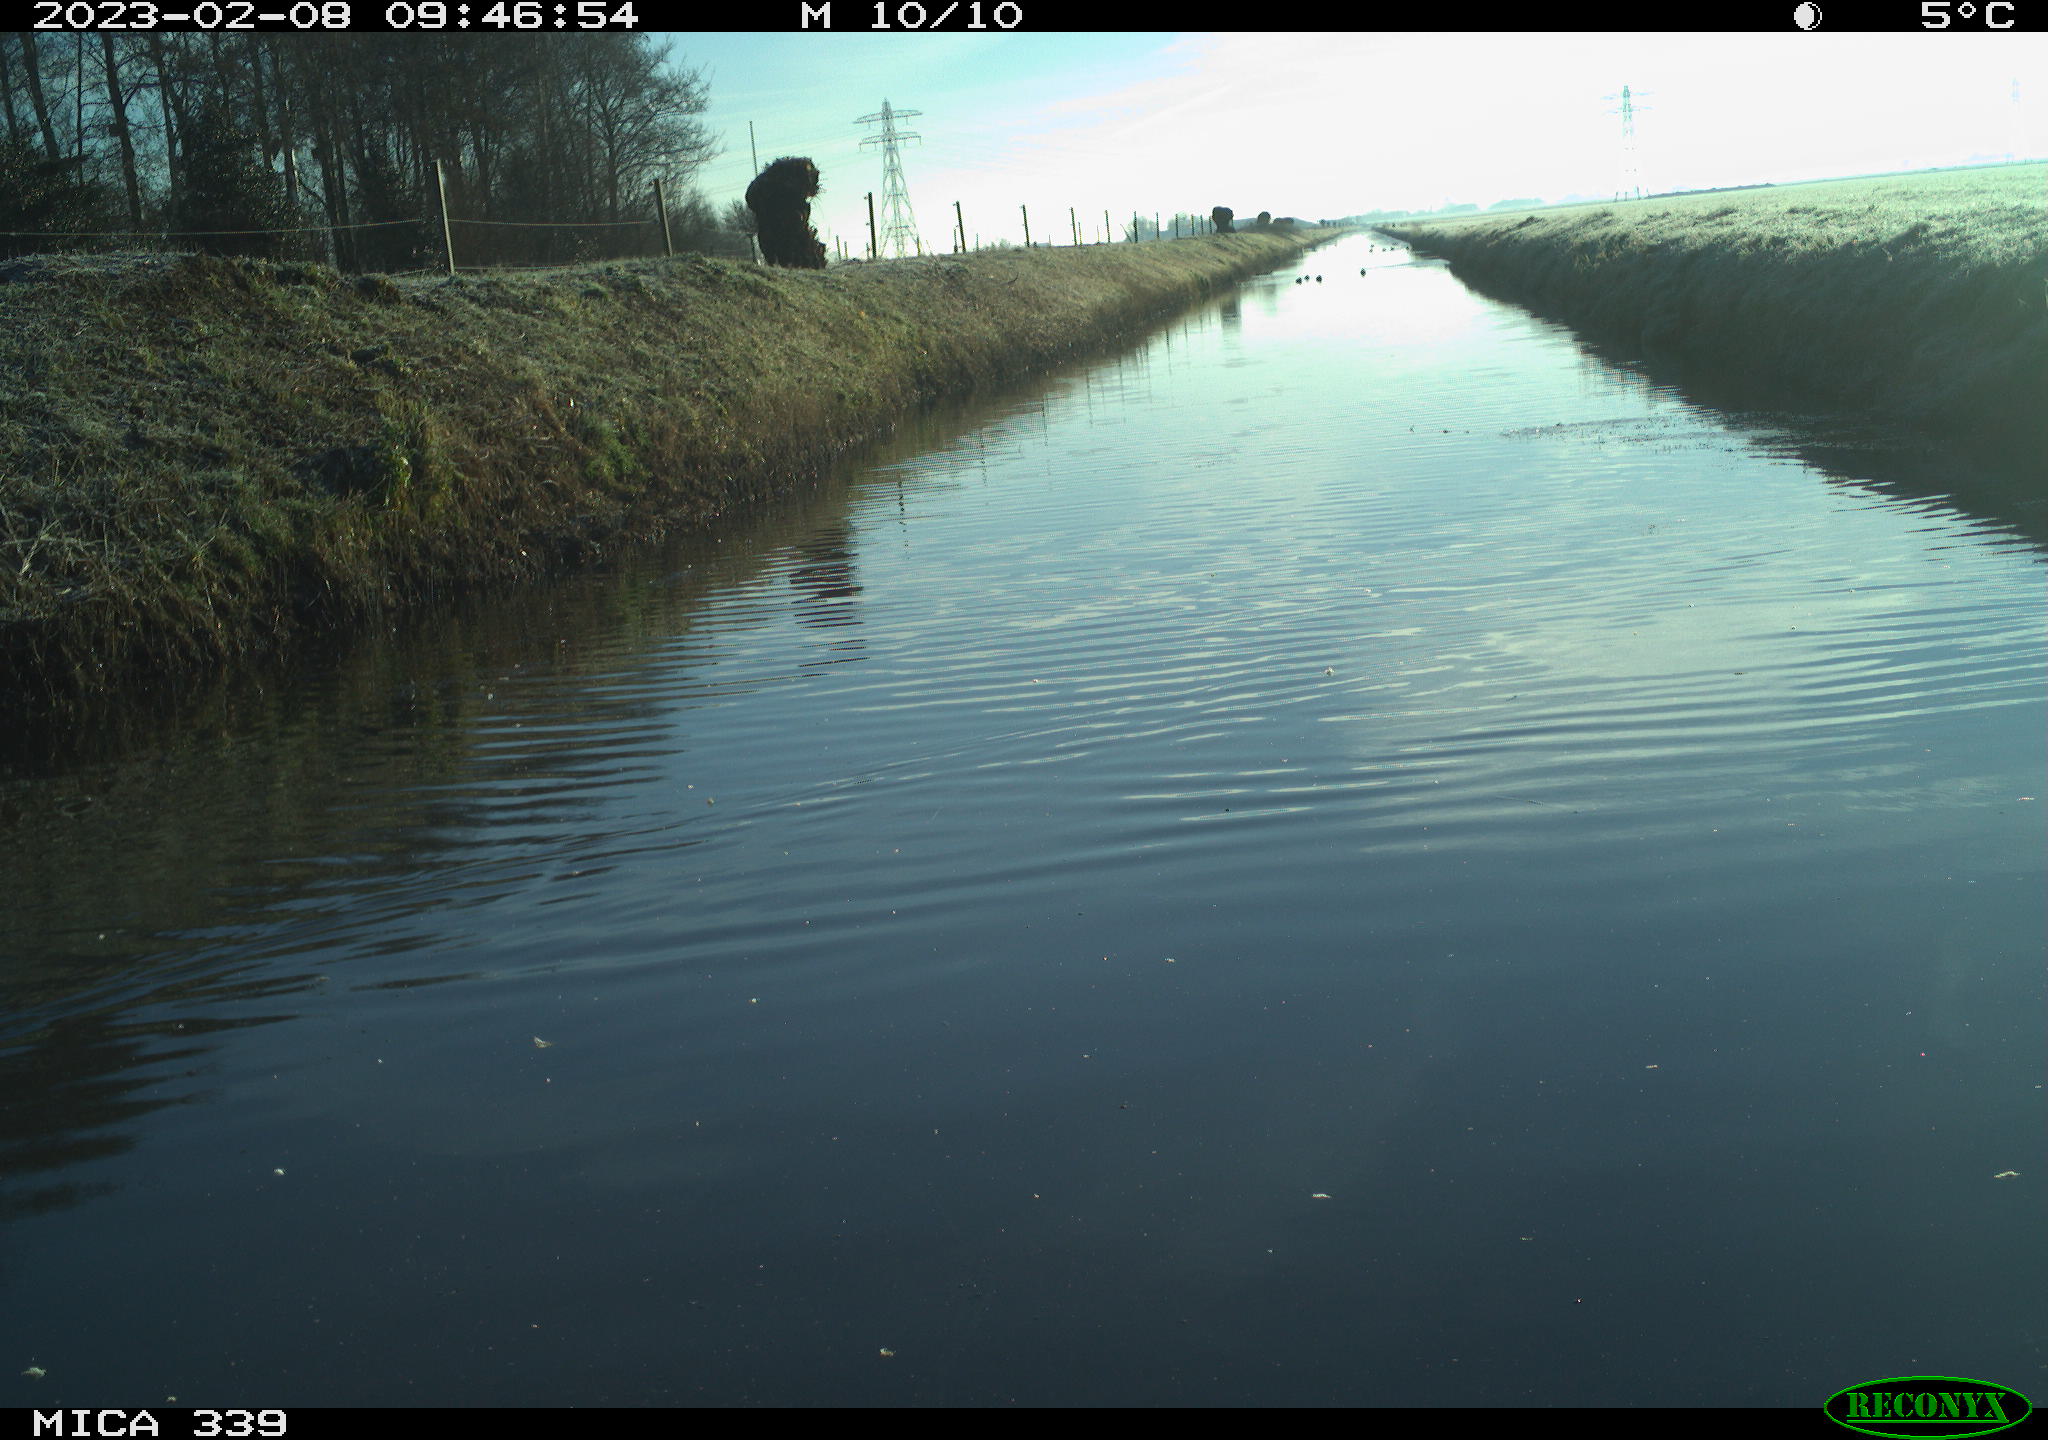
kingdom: Animalia
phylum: Chordata
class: Aves
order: Anseriformes
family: Anatidae
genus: Anas
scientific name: Anas
